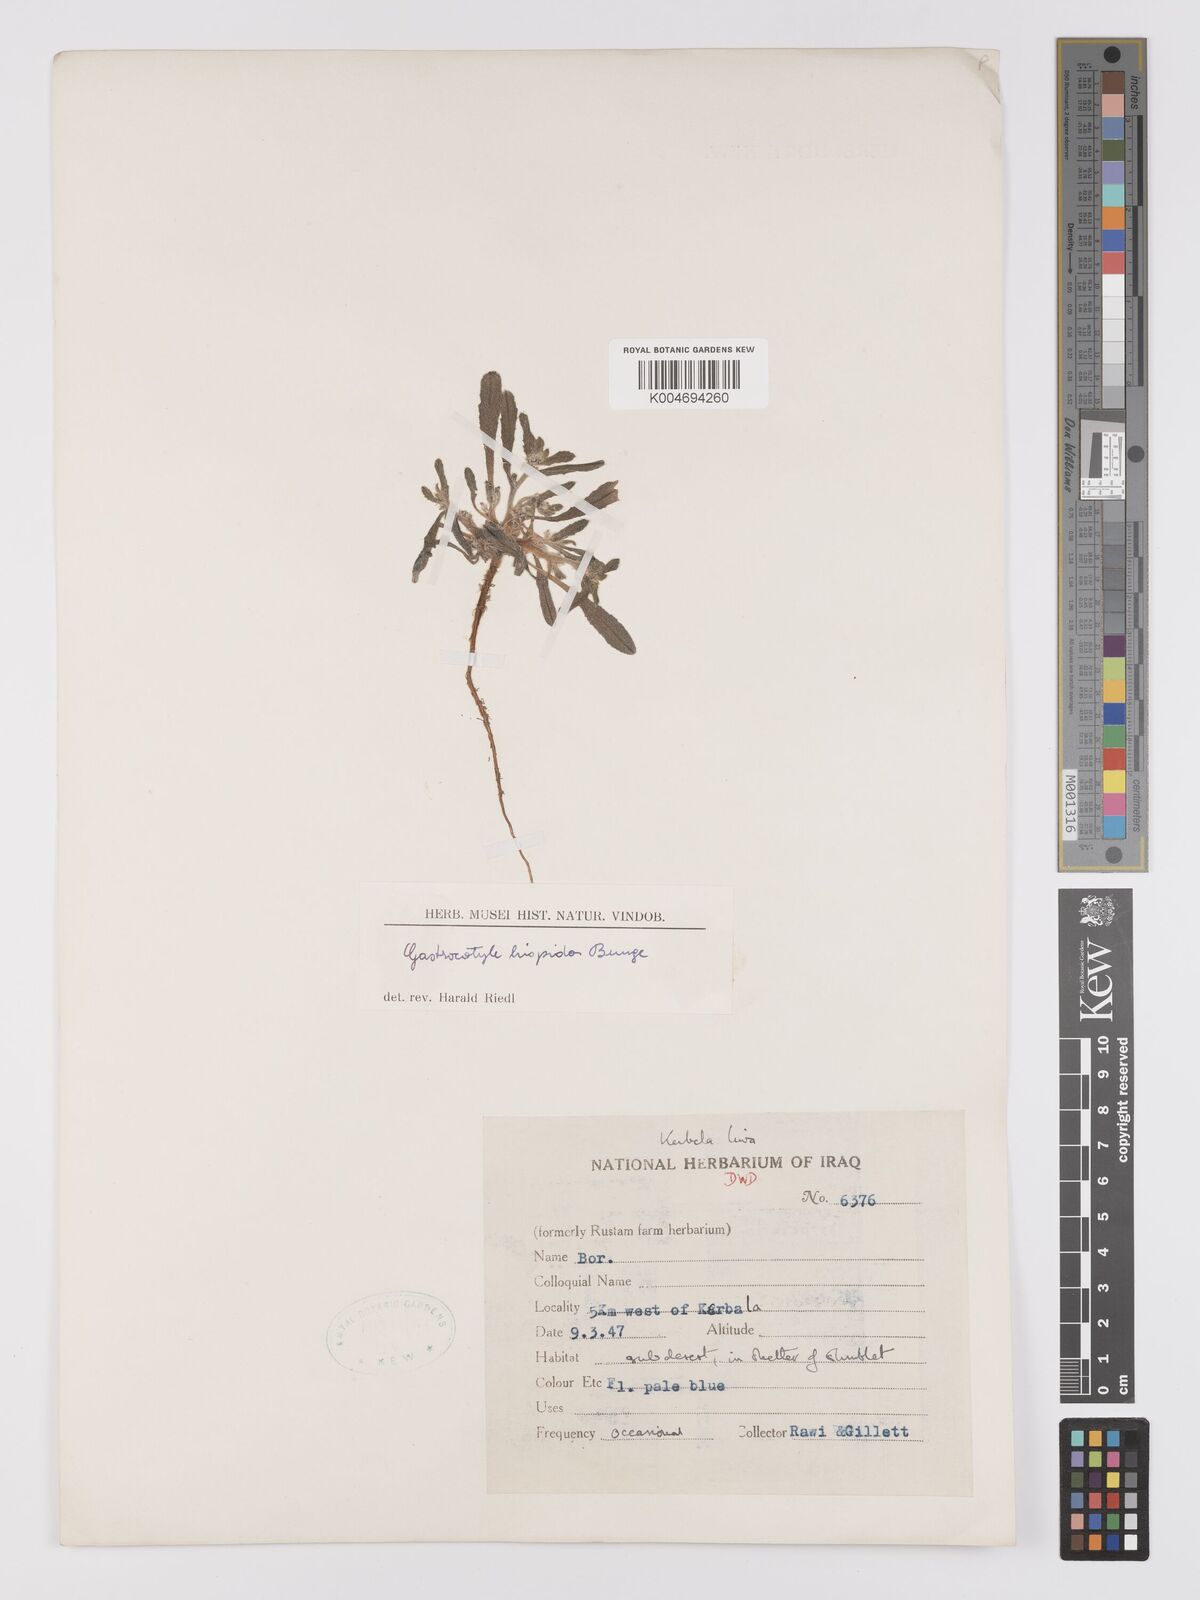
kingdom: Plantae
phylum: Tracheophyta
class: Magnoliopsida
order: Boraginales
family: Boraginaceae
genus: Gastrocotyle
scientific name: Gastrocotyle hispida
